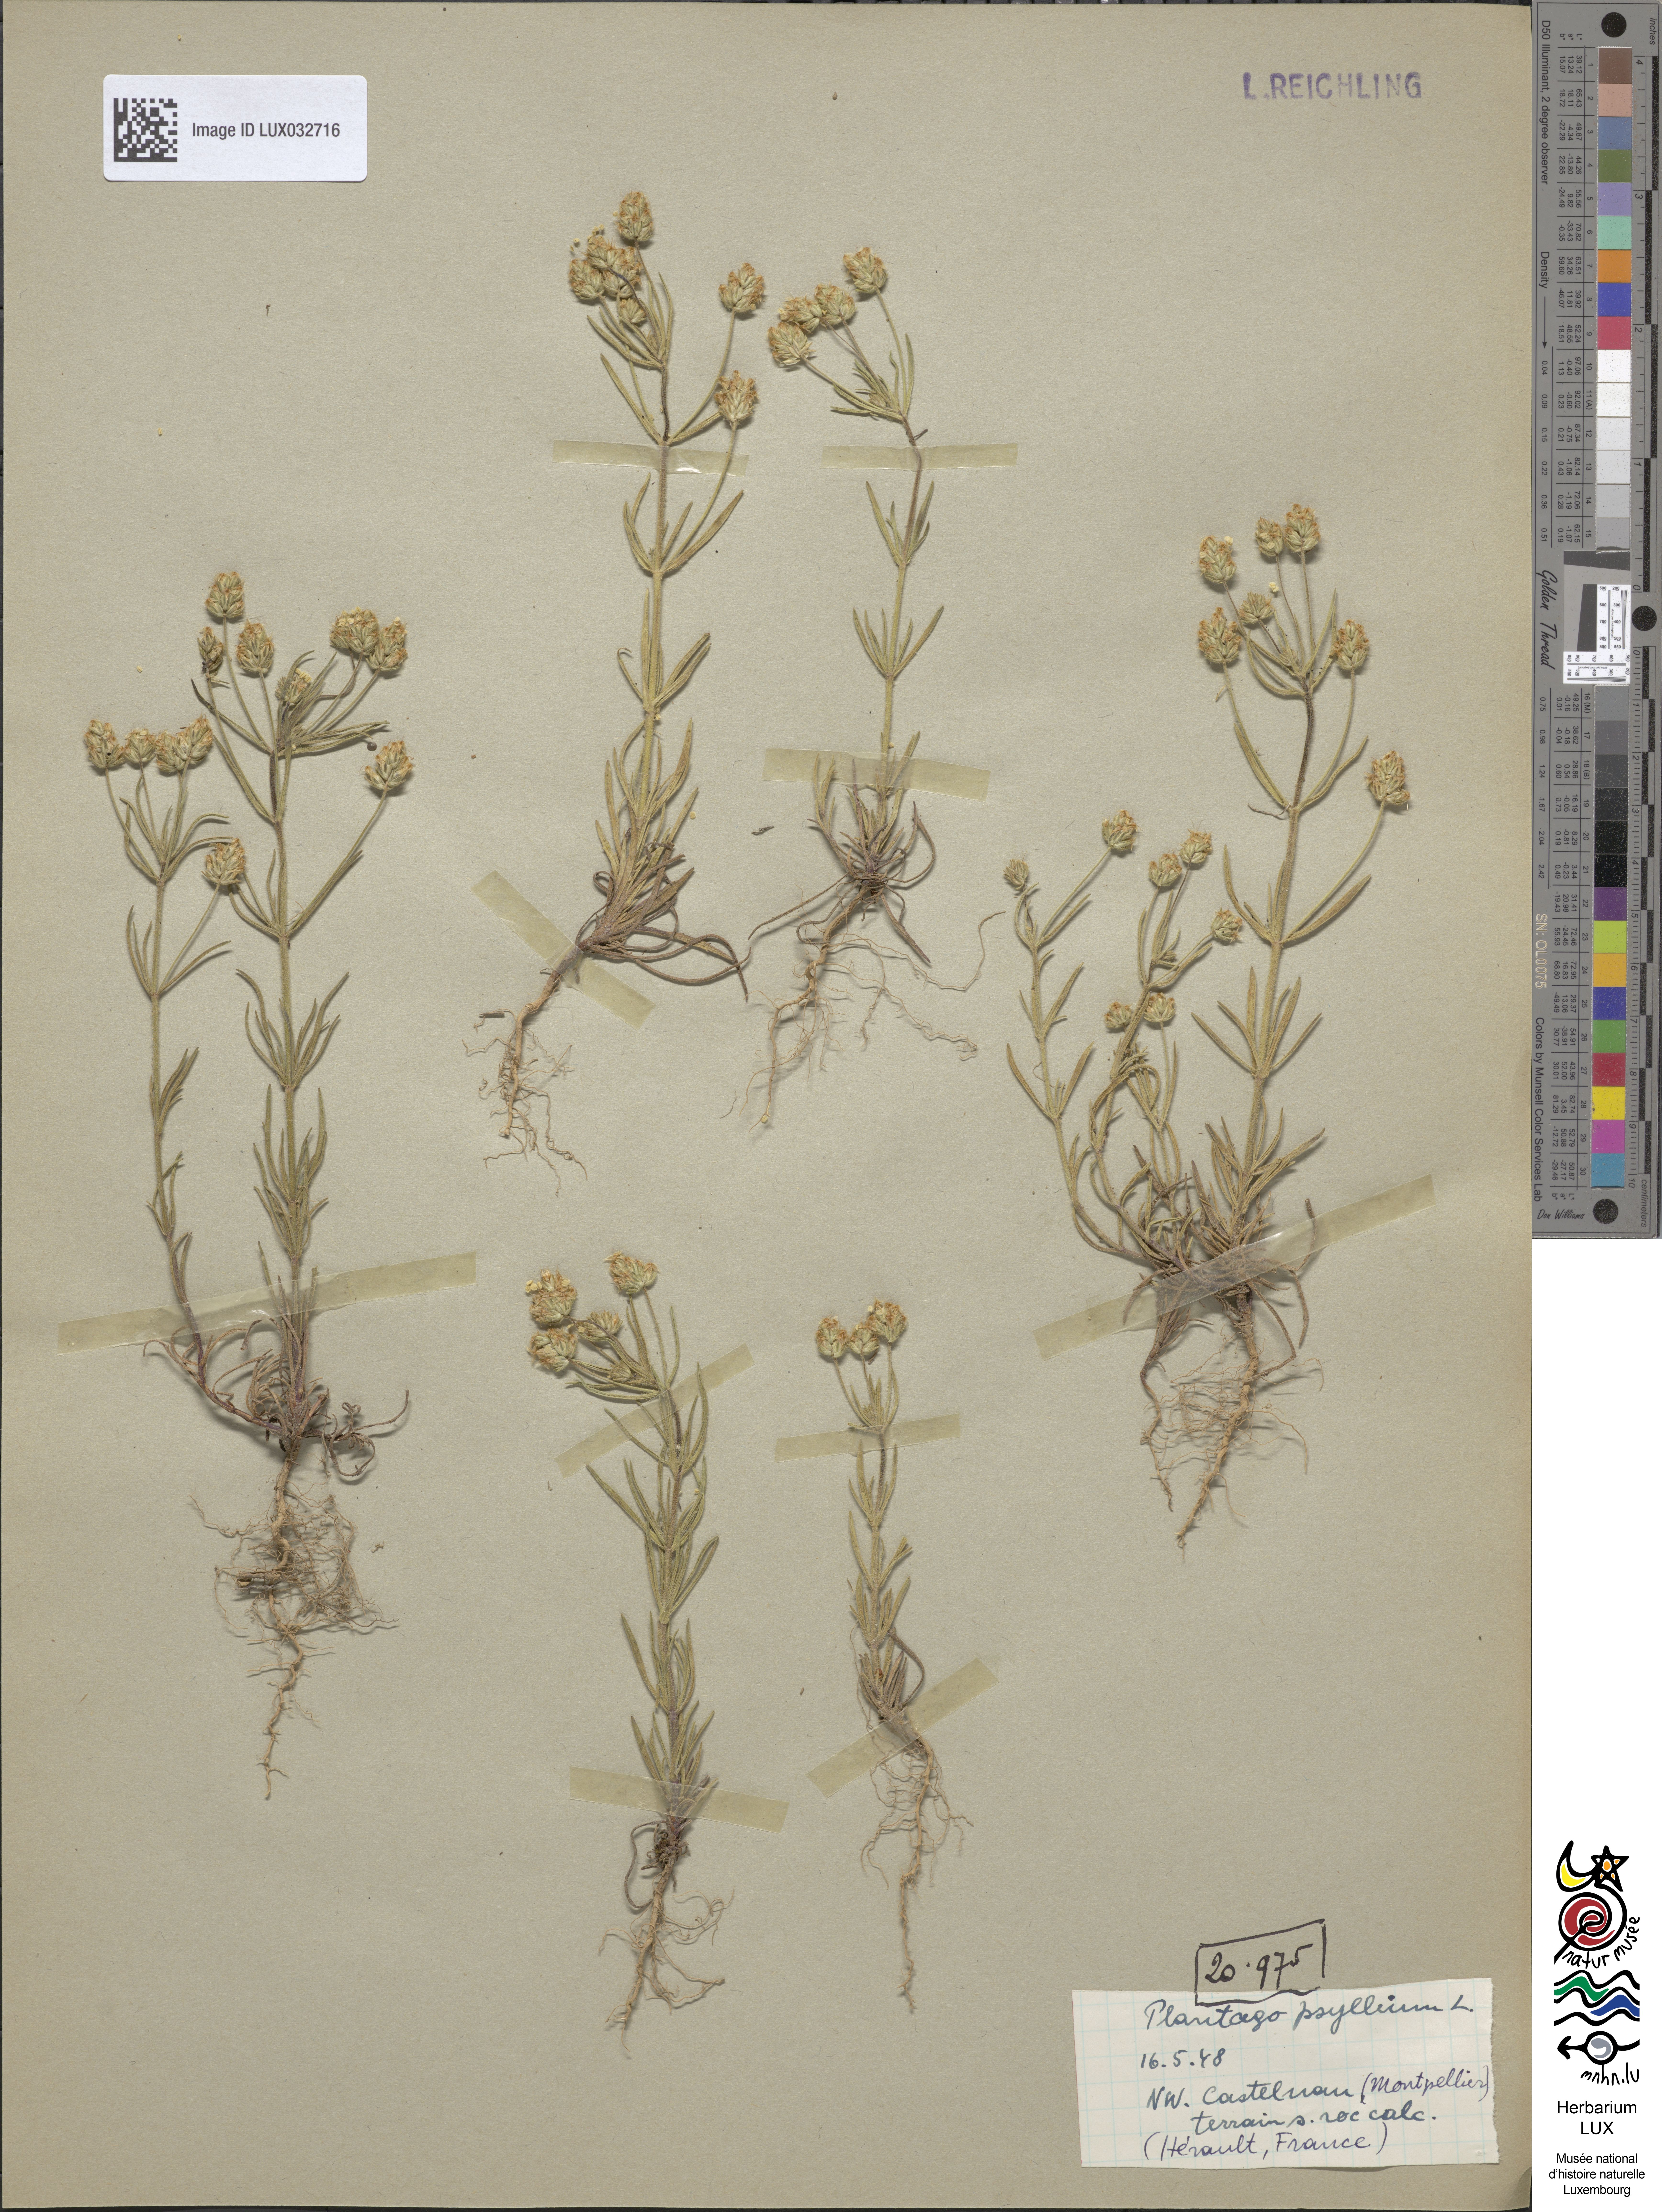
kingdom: Plantae
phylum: Tracheophyta
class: Magnoliopsida
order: Lamiales
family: Plantaginaceae
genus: Plantago
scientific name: Plantago arenaria
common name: Branched plantain
